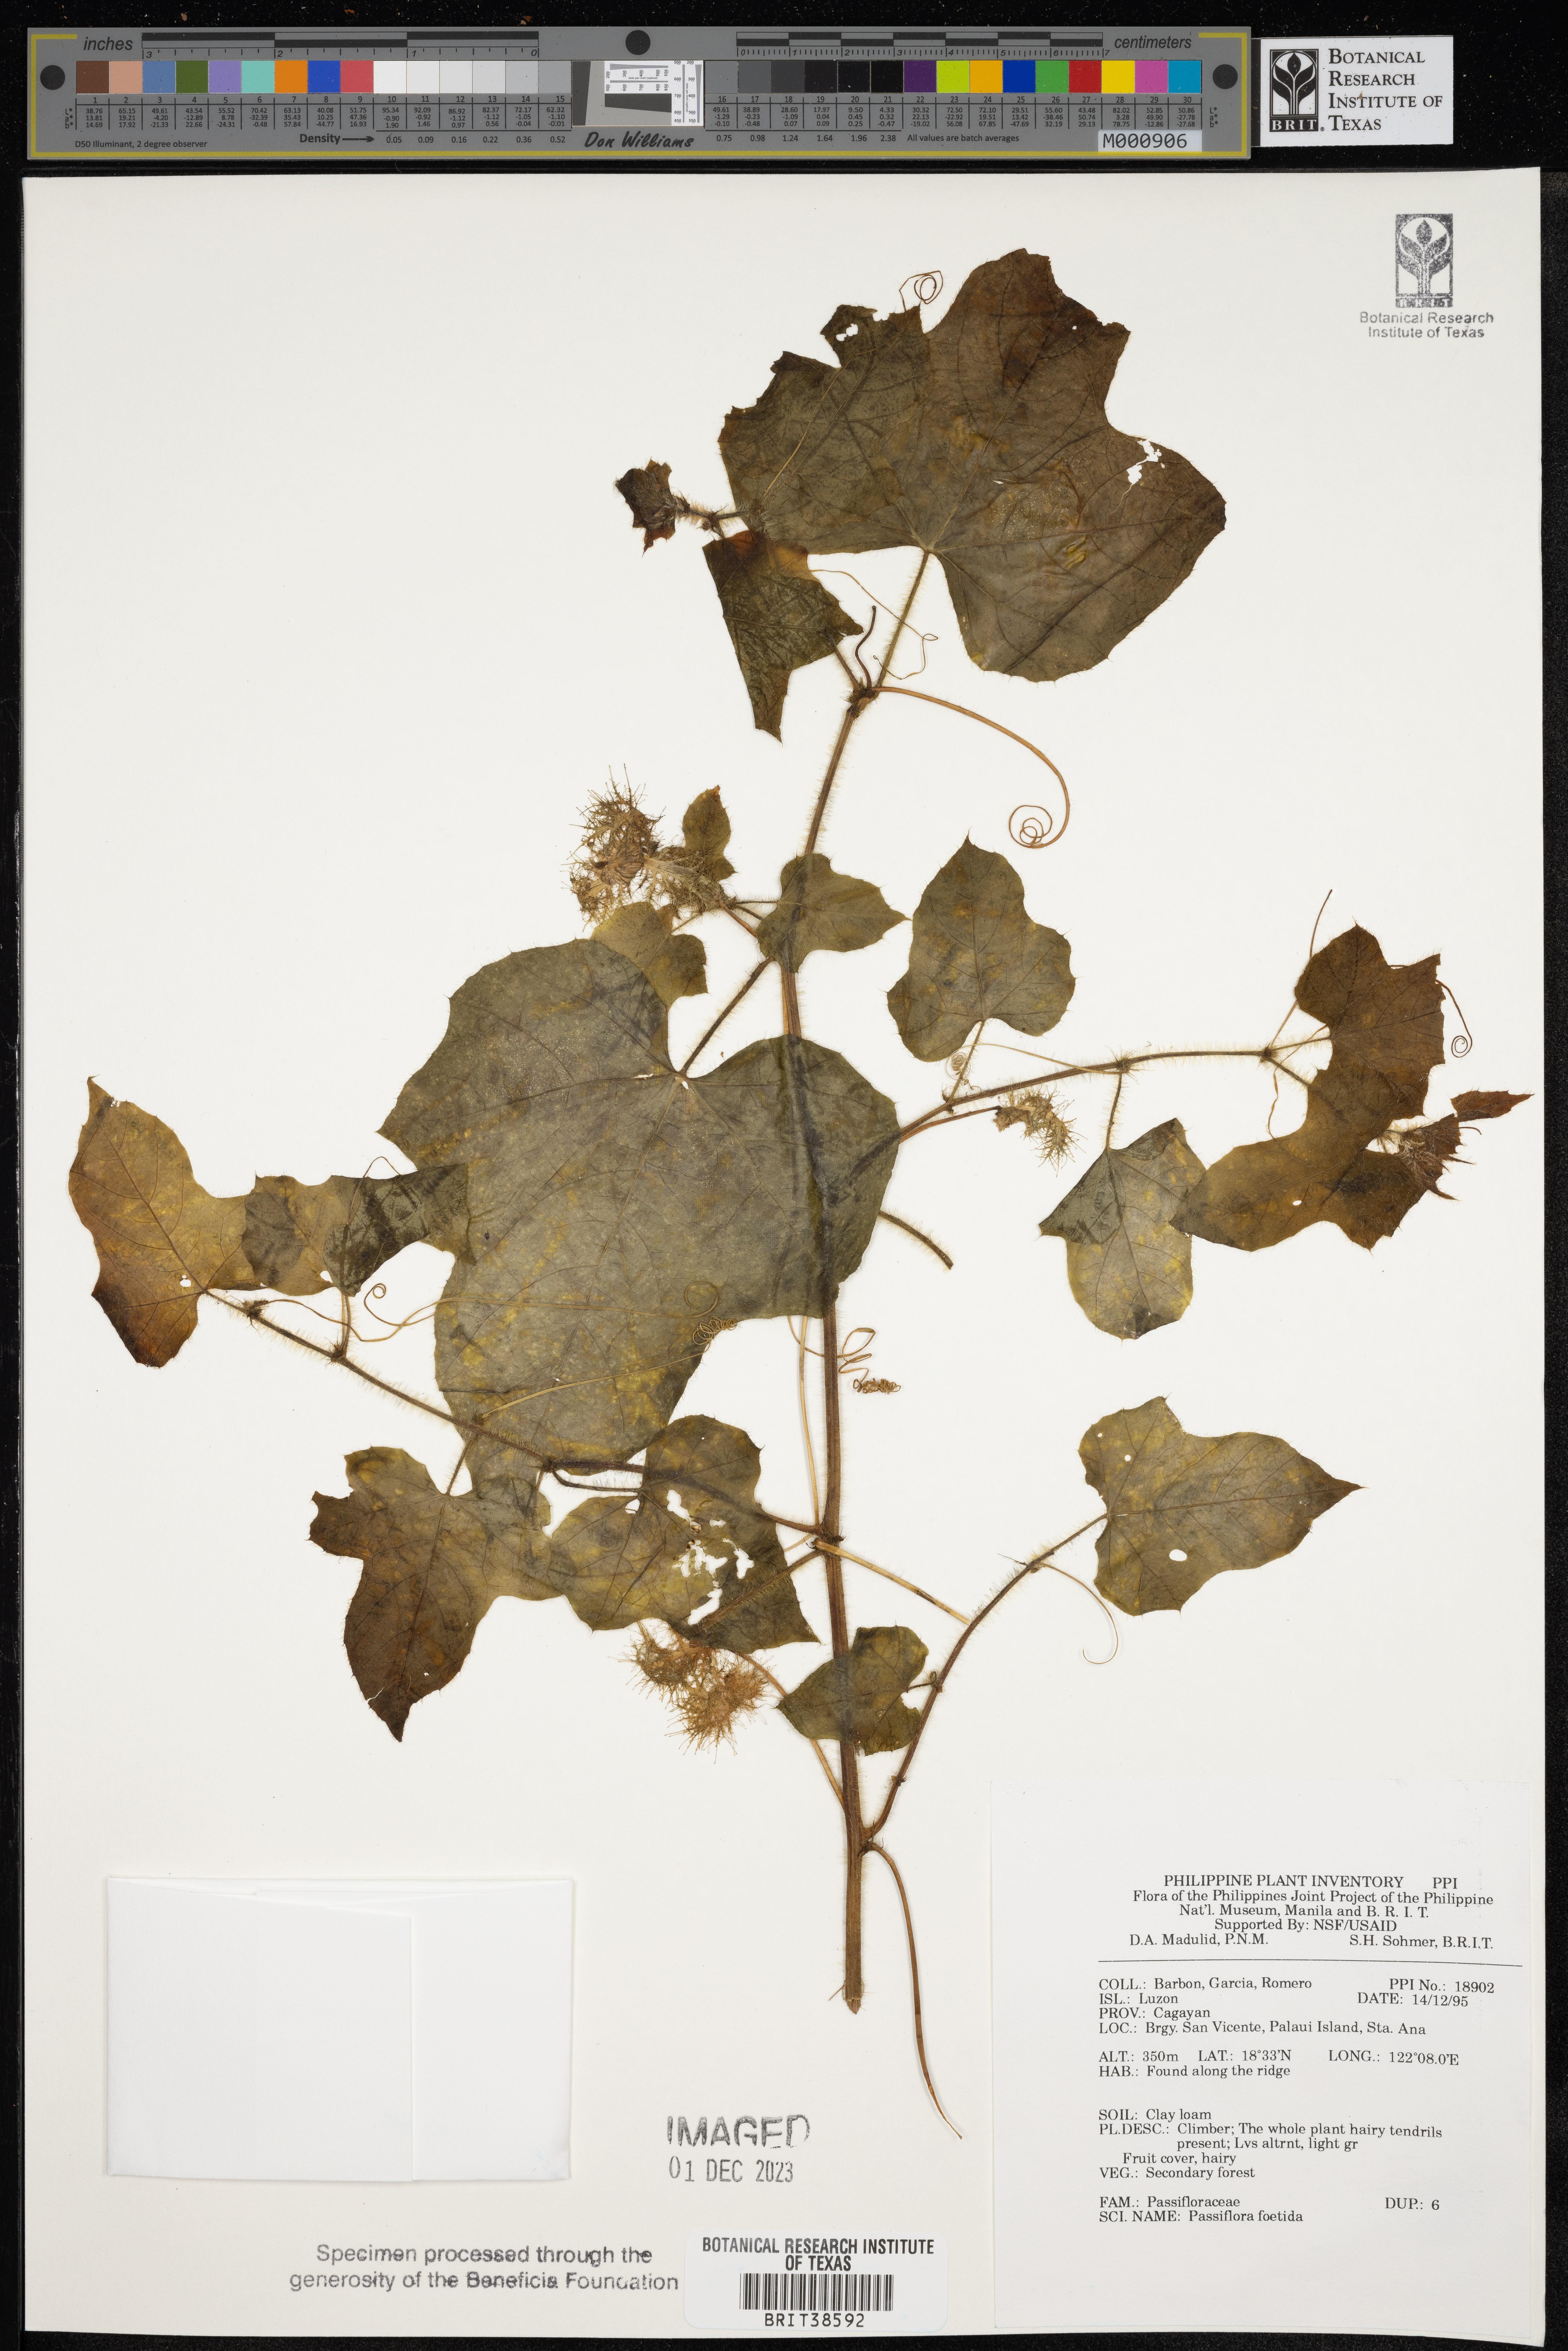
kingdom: Plantae
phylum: Tracheophyta
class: Magnoliopsida
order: Malpighiales
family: Passifloraceae
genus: Passiflora
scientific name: Passiflora foetida
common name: Fetid passionflower
